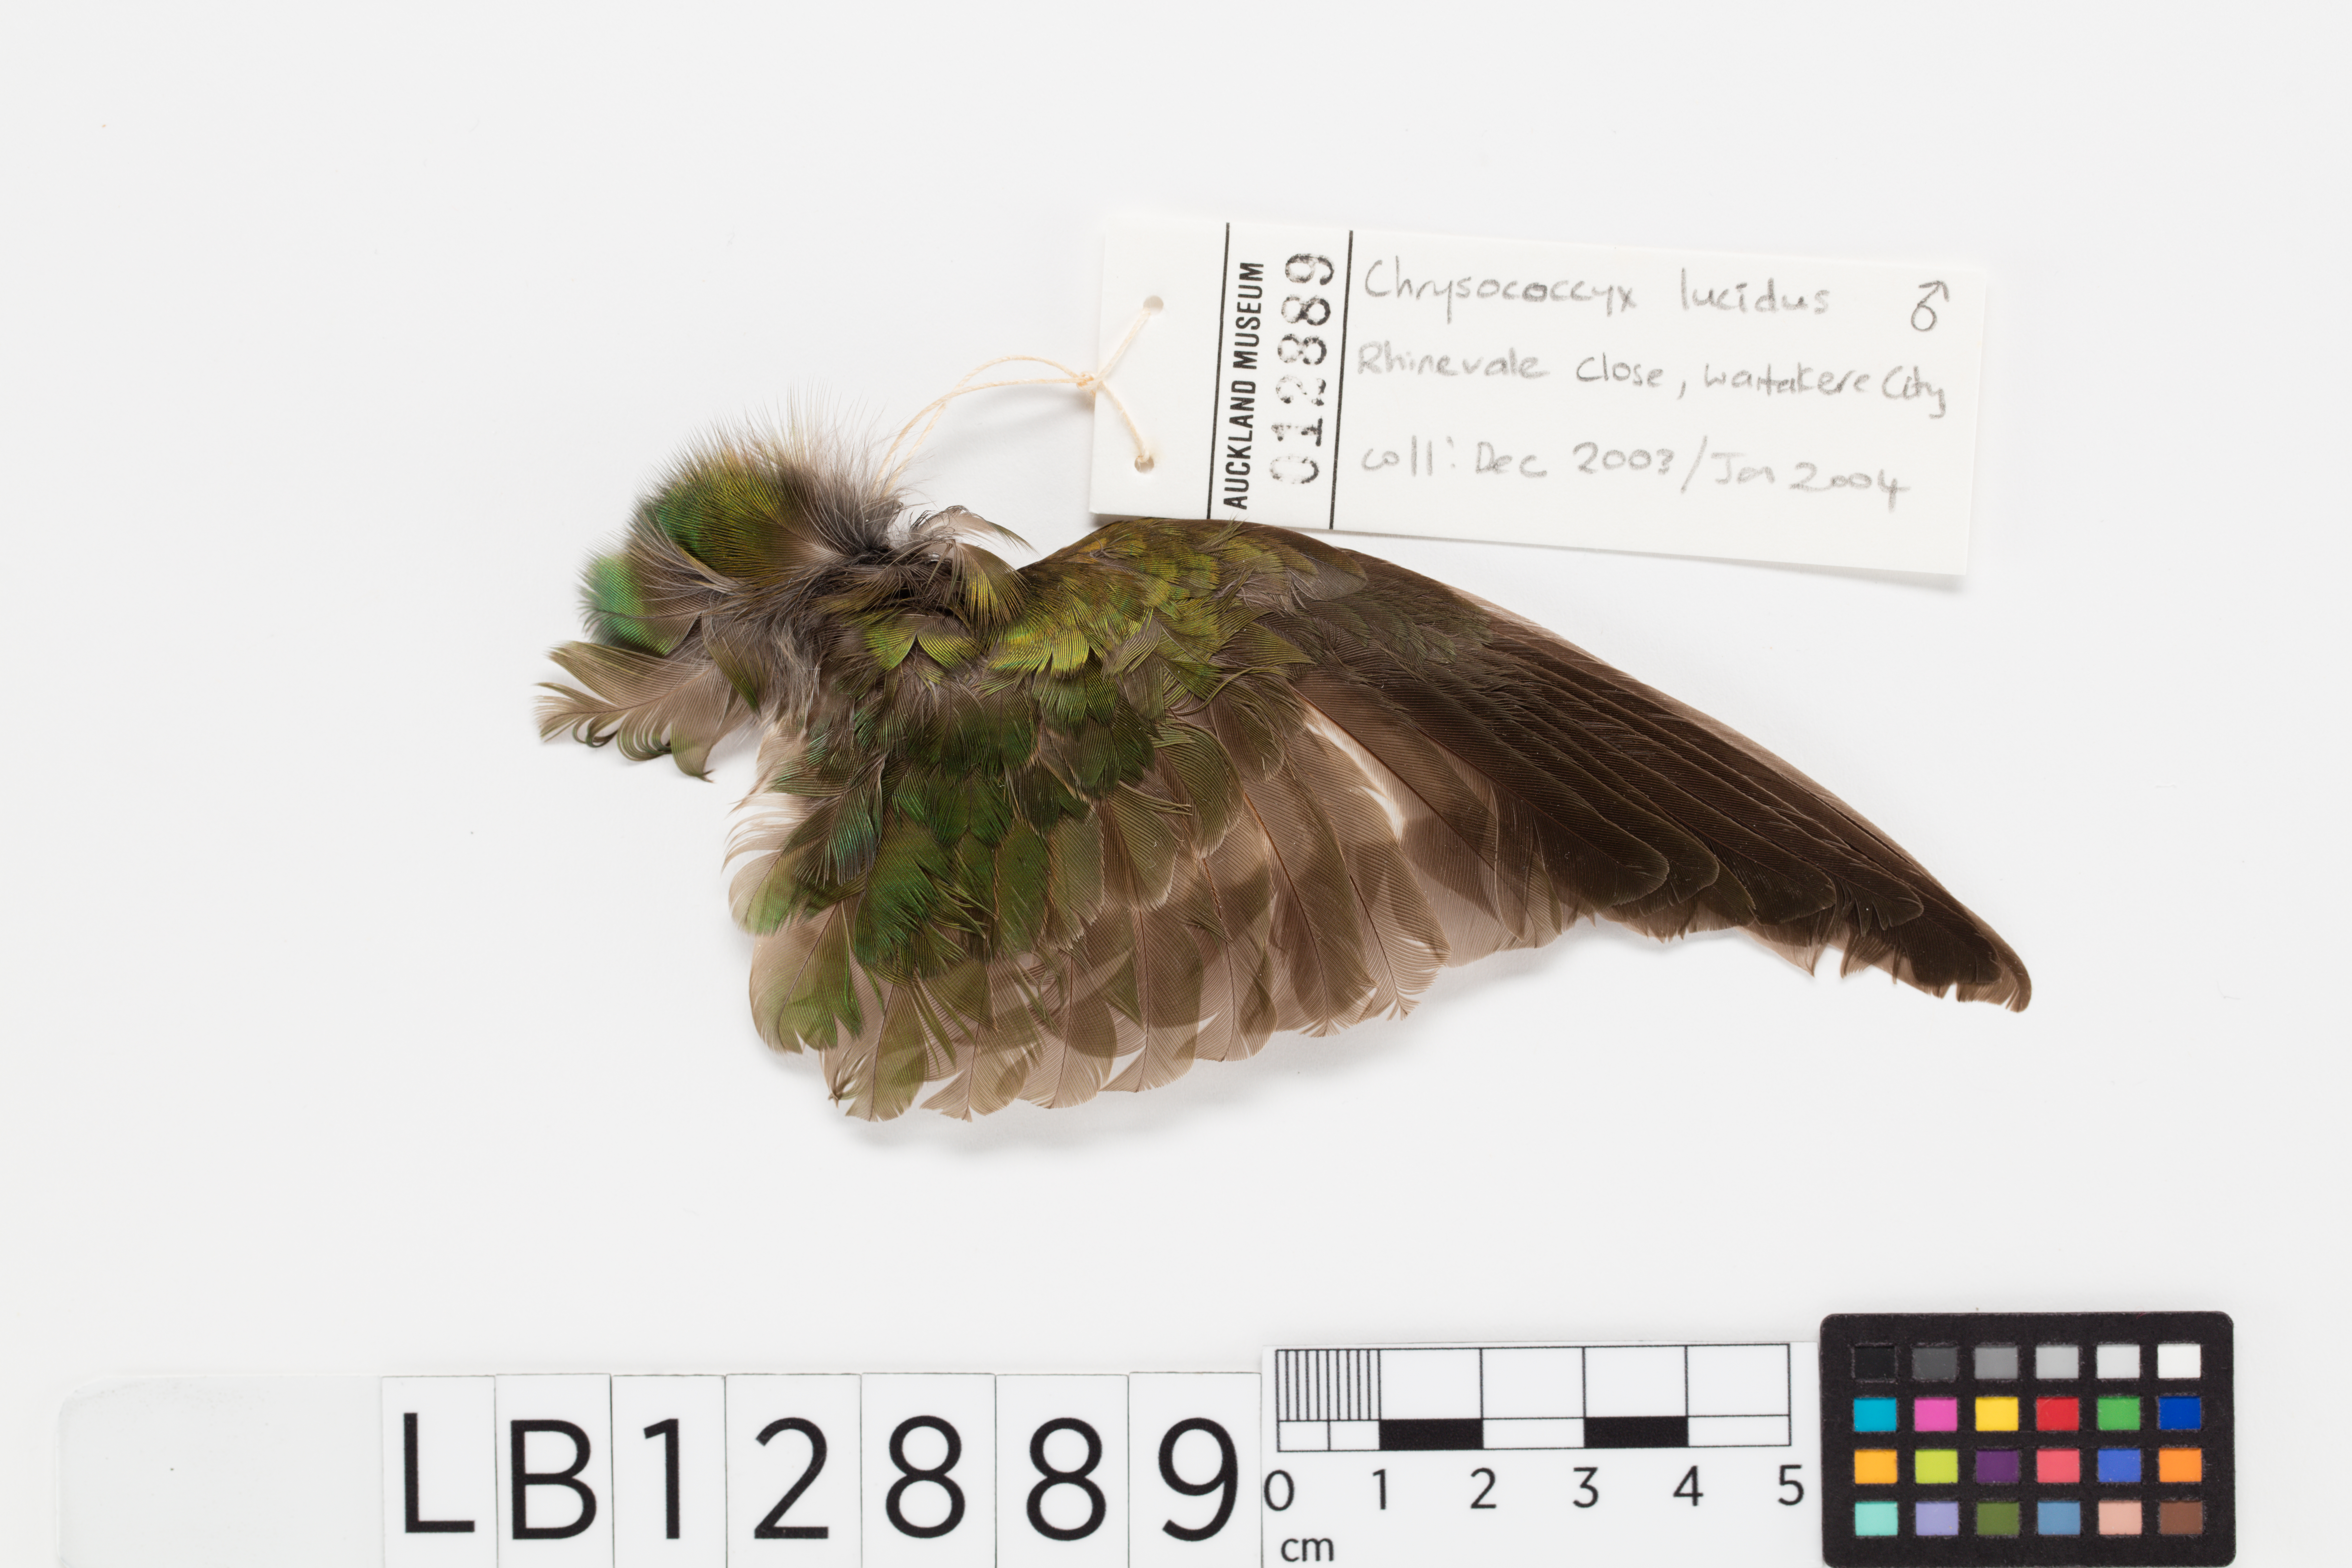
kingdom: Animalia
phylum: Chordata
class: Aves
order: Cuculiformes
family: Cuculidae
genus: Chrysococcyx
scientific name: Chrysococcyx lucidus
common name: Shining bronze cuckoo
